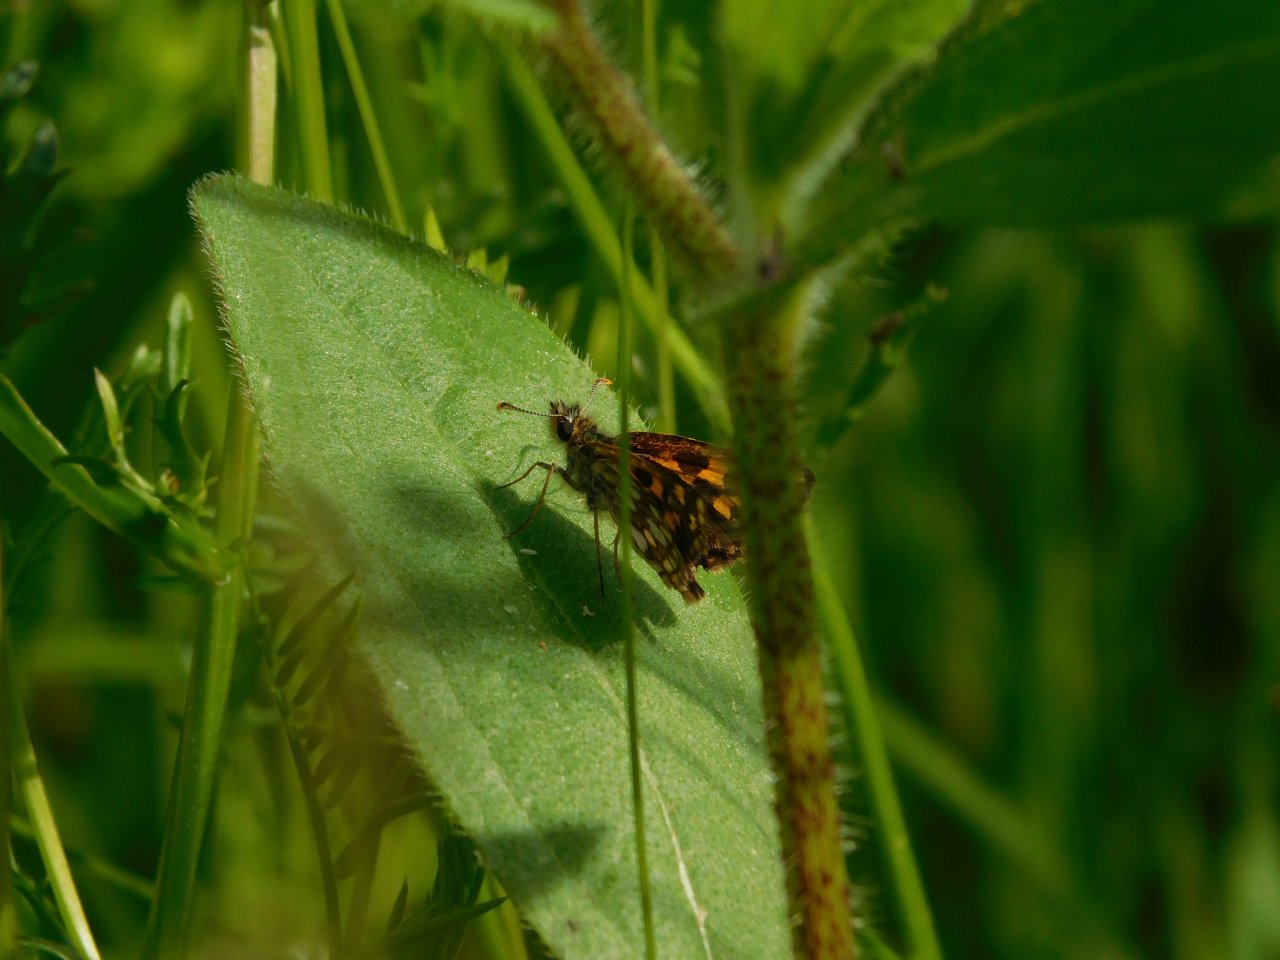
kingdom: Animalia
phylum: Arthropoda
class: Insecta
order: Lepidoptera
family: Hesperiidae
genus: Carterocephalus
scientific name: Carterocephalus palaemon
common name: Chequered Skipper
